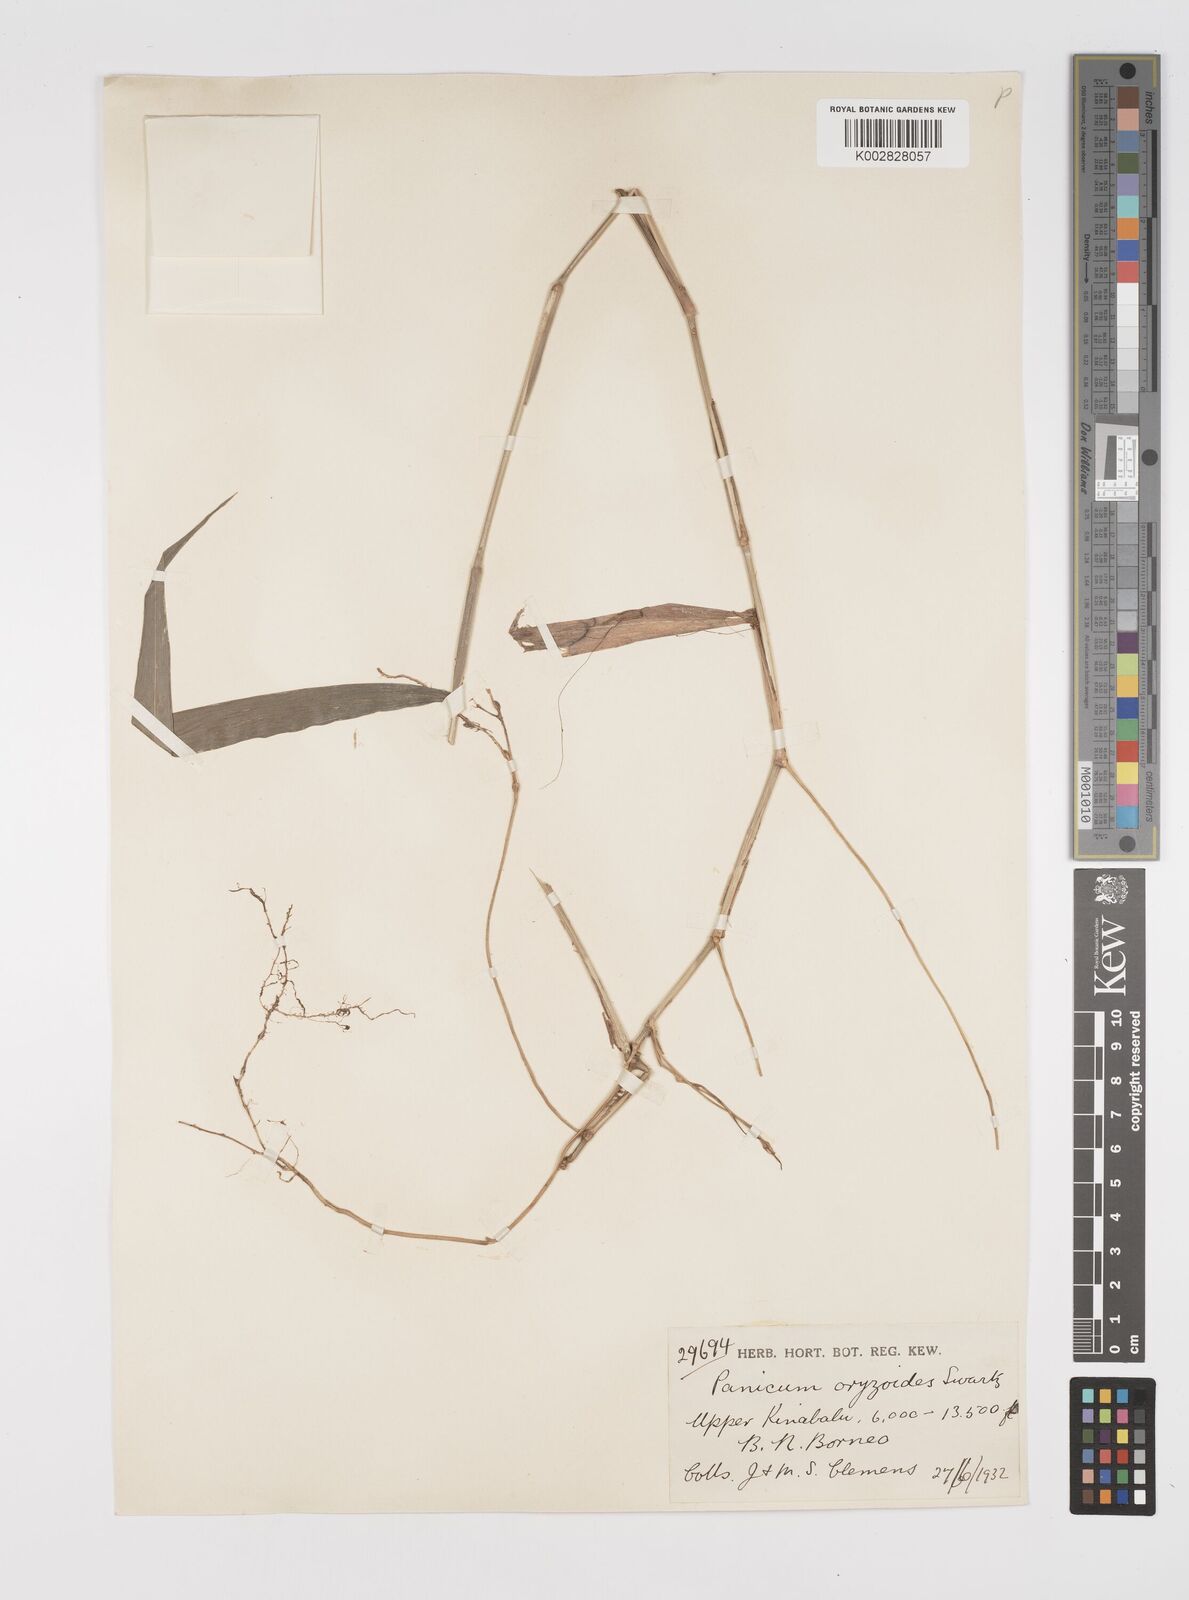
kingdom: Plantae
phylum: Tracheophyta
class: Liliopsida
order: Poales
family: Poaceae
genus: Acroceras
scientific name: Acroceras tonkinense
